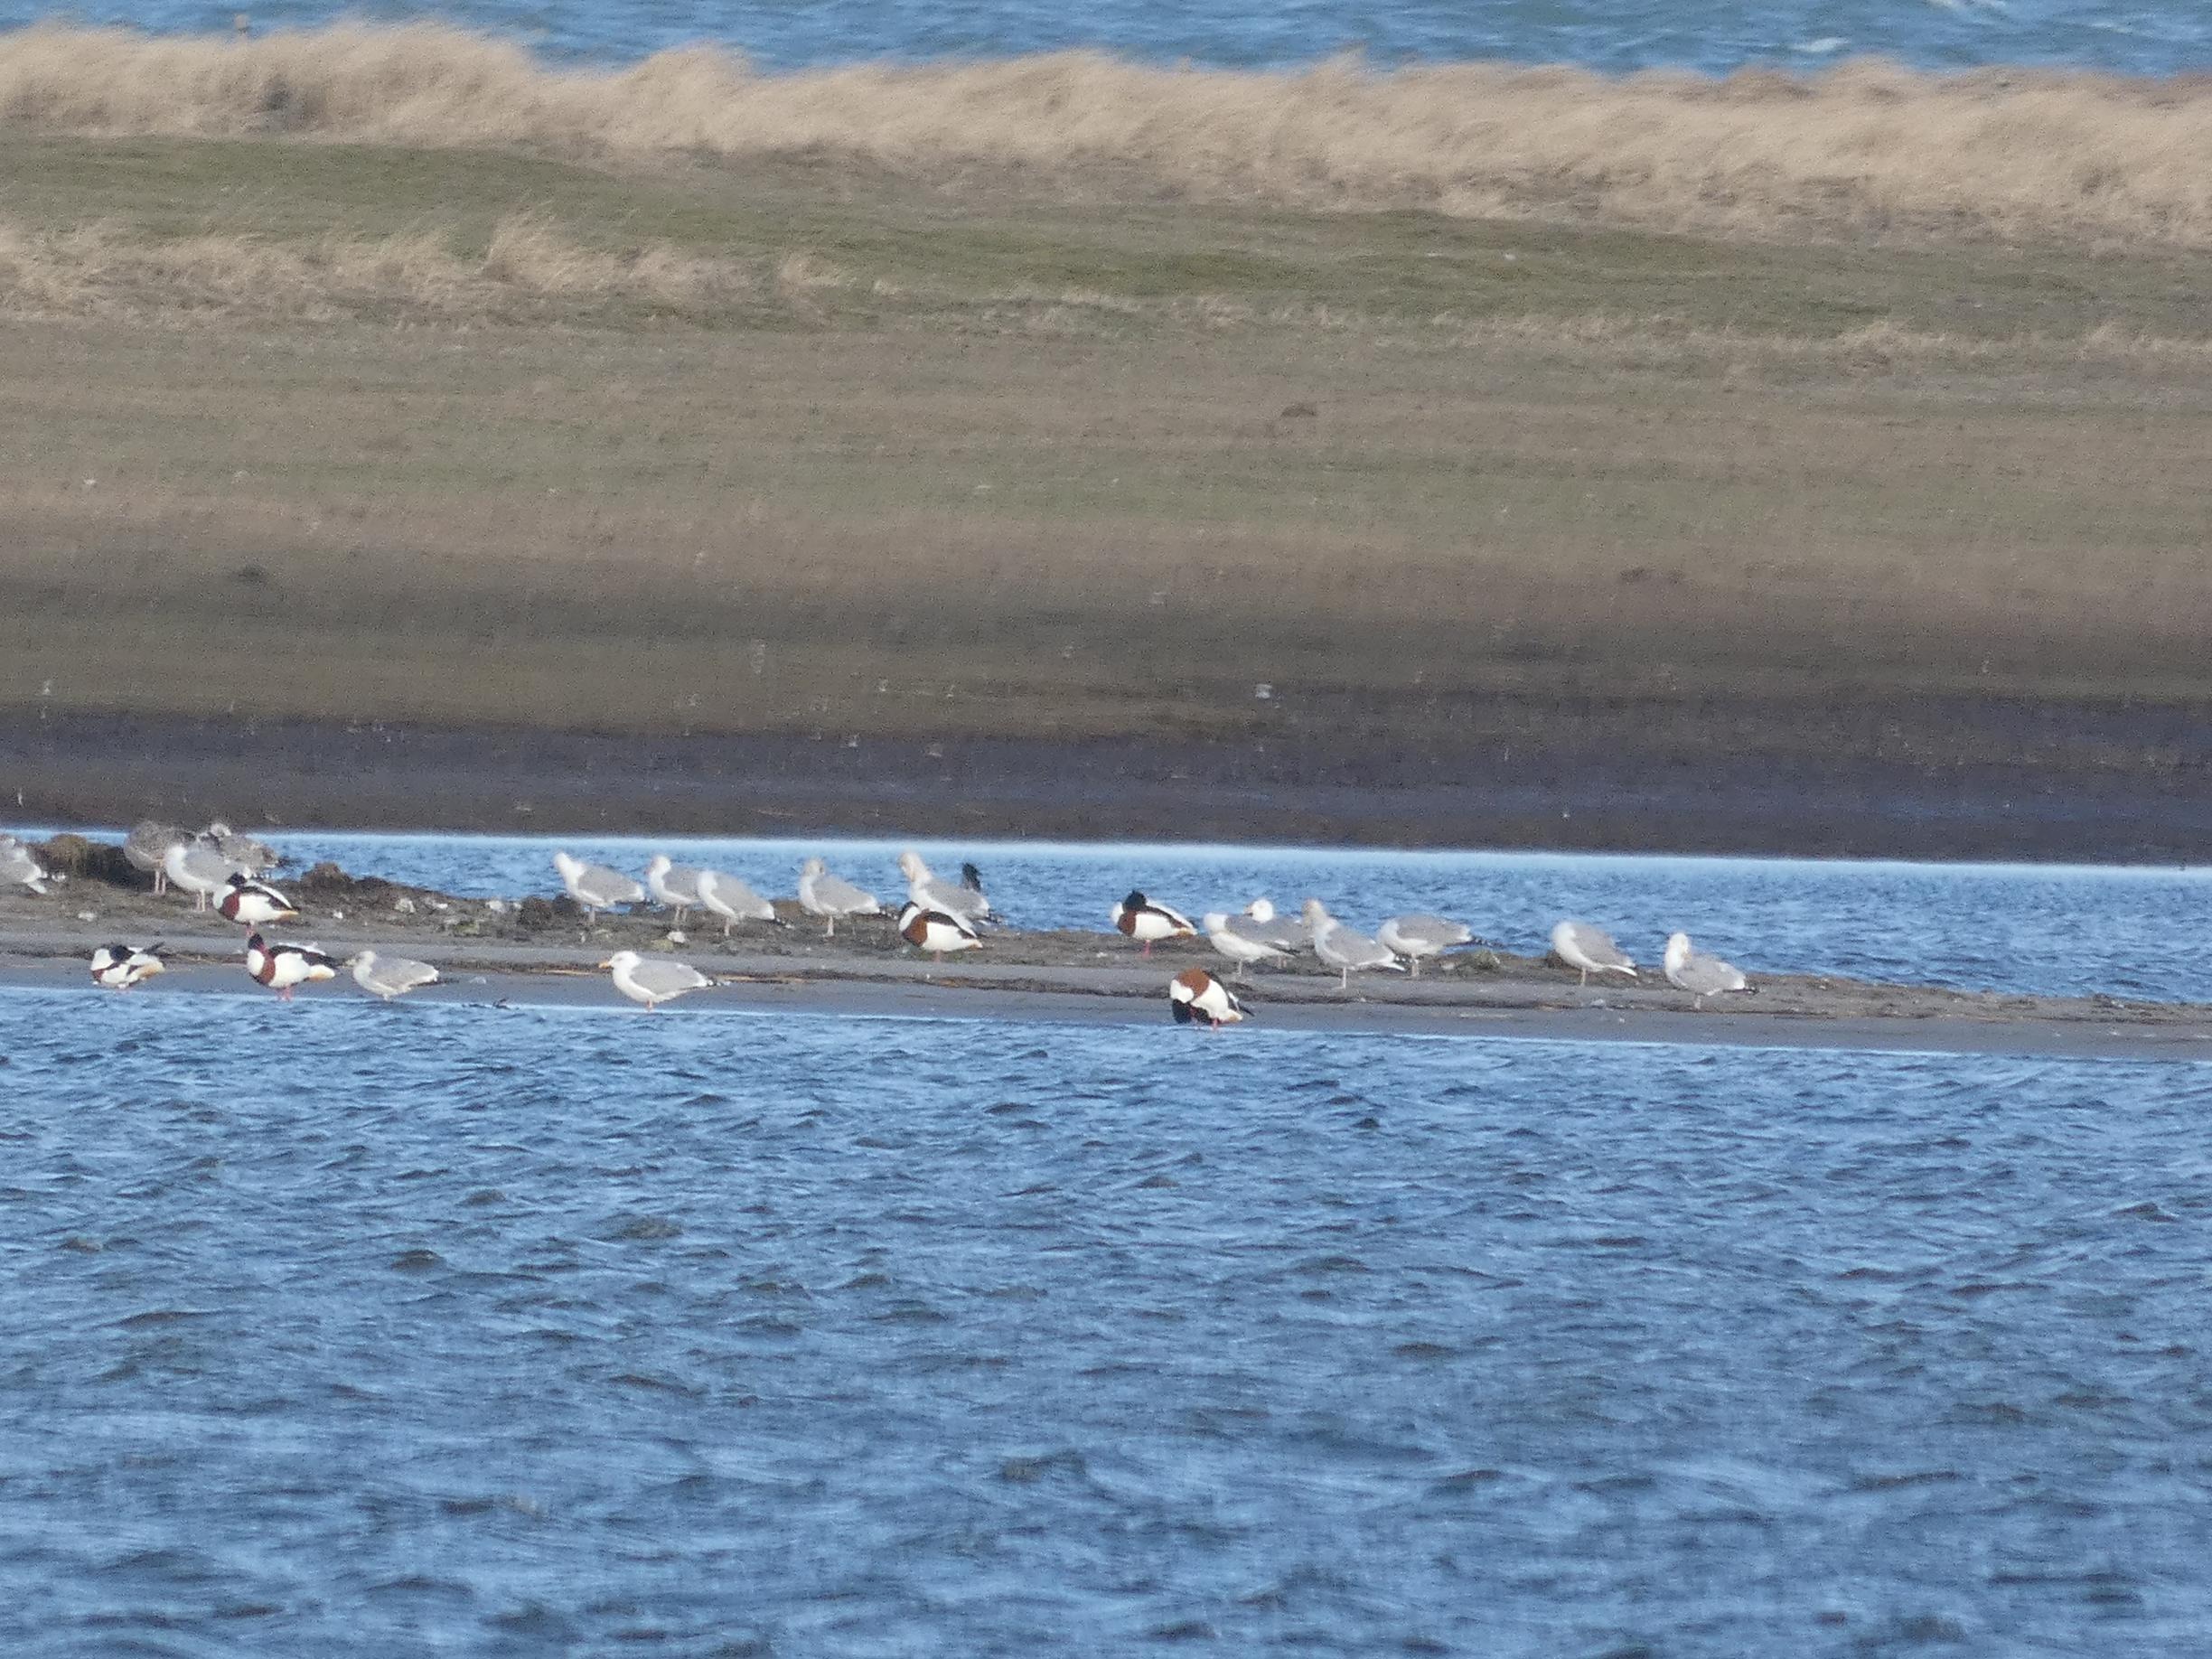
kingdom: Animalia
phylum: Chordata
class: Aves
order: Charadriiformes
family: Laridae
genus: Larus
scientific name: Larus argentatus
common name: Sølvmåge
